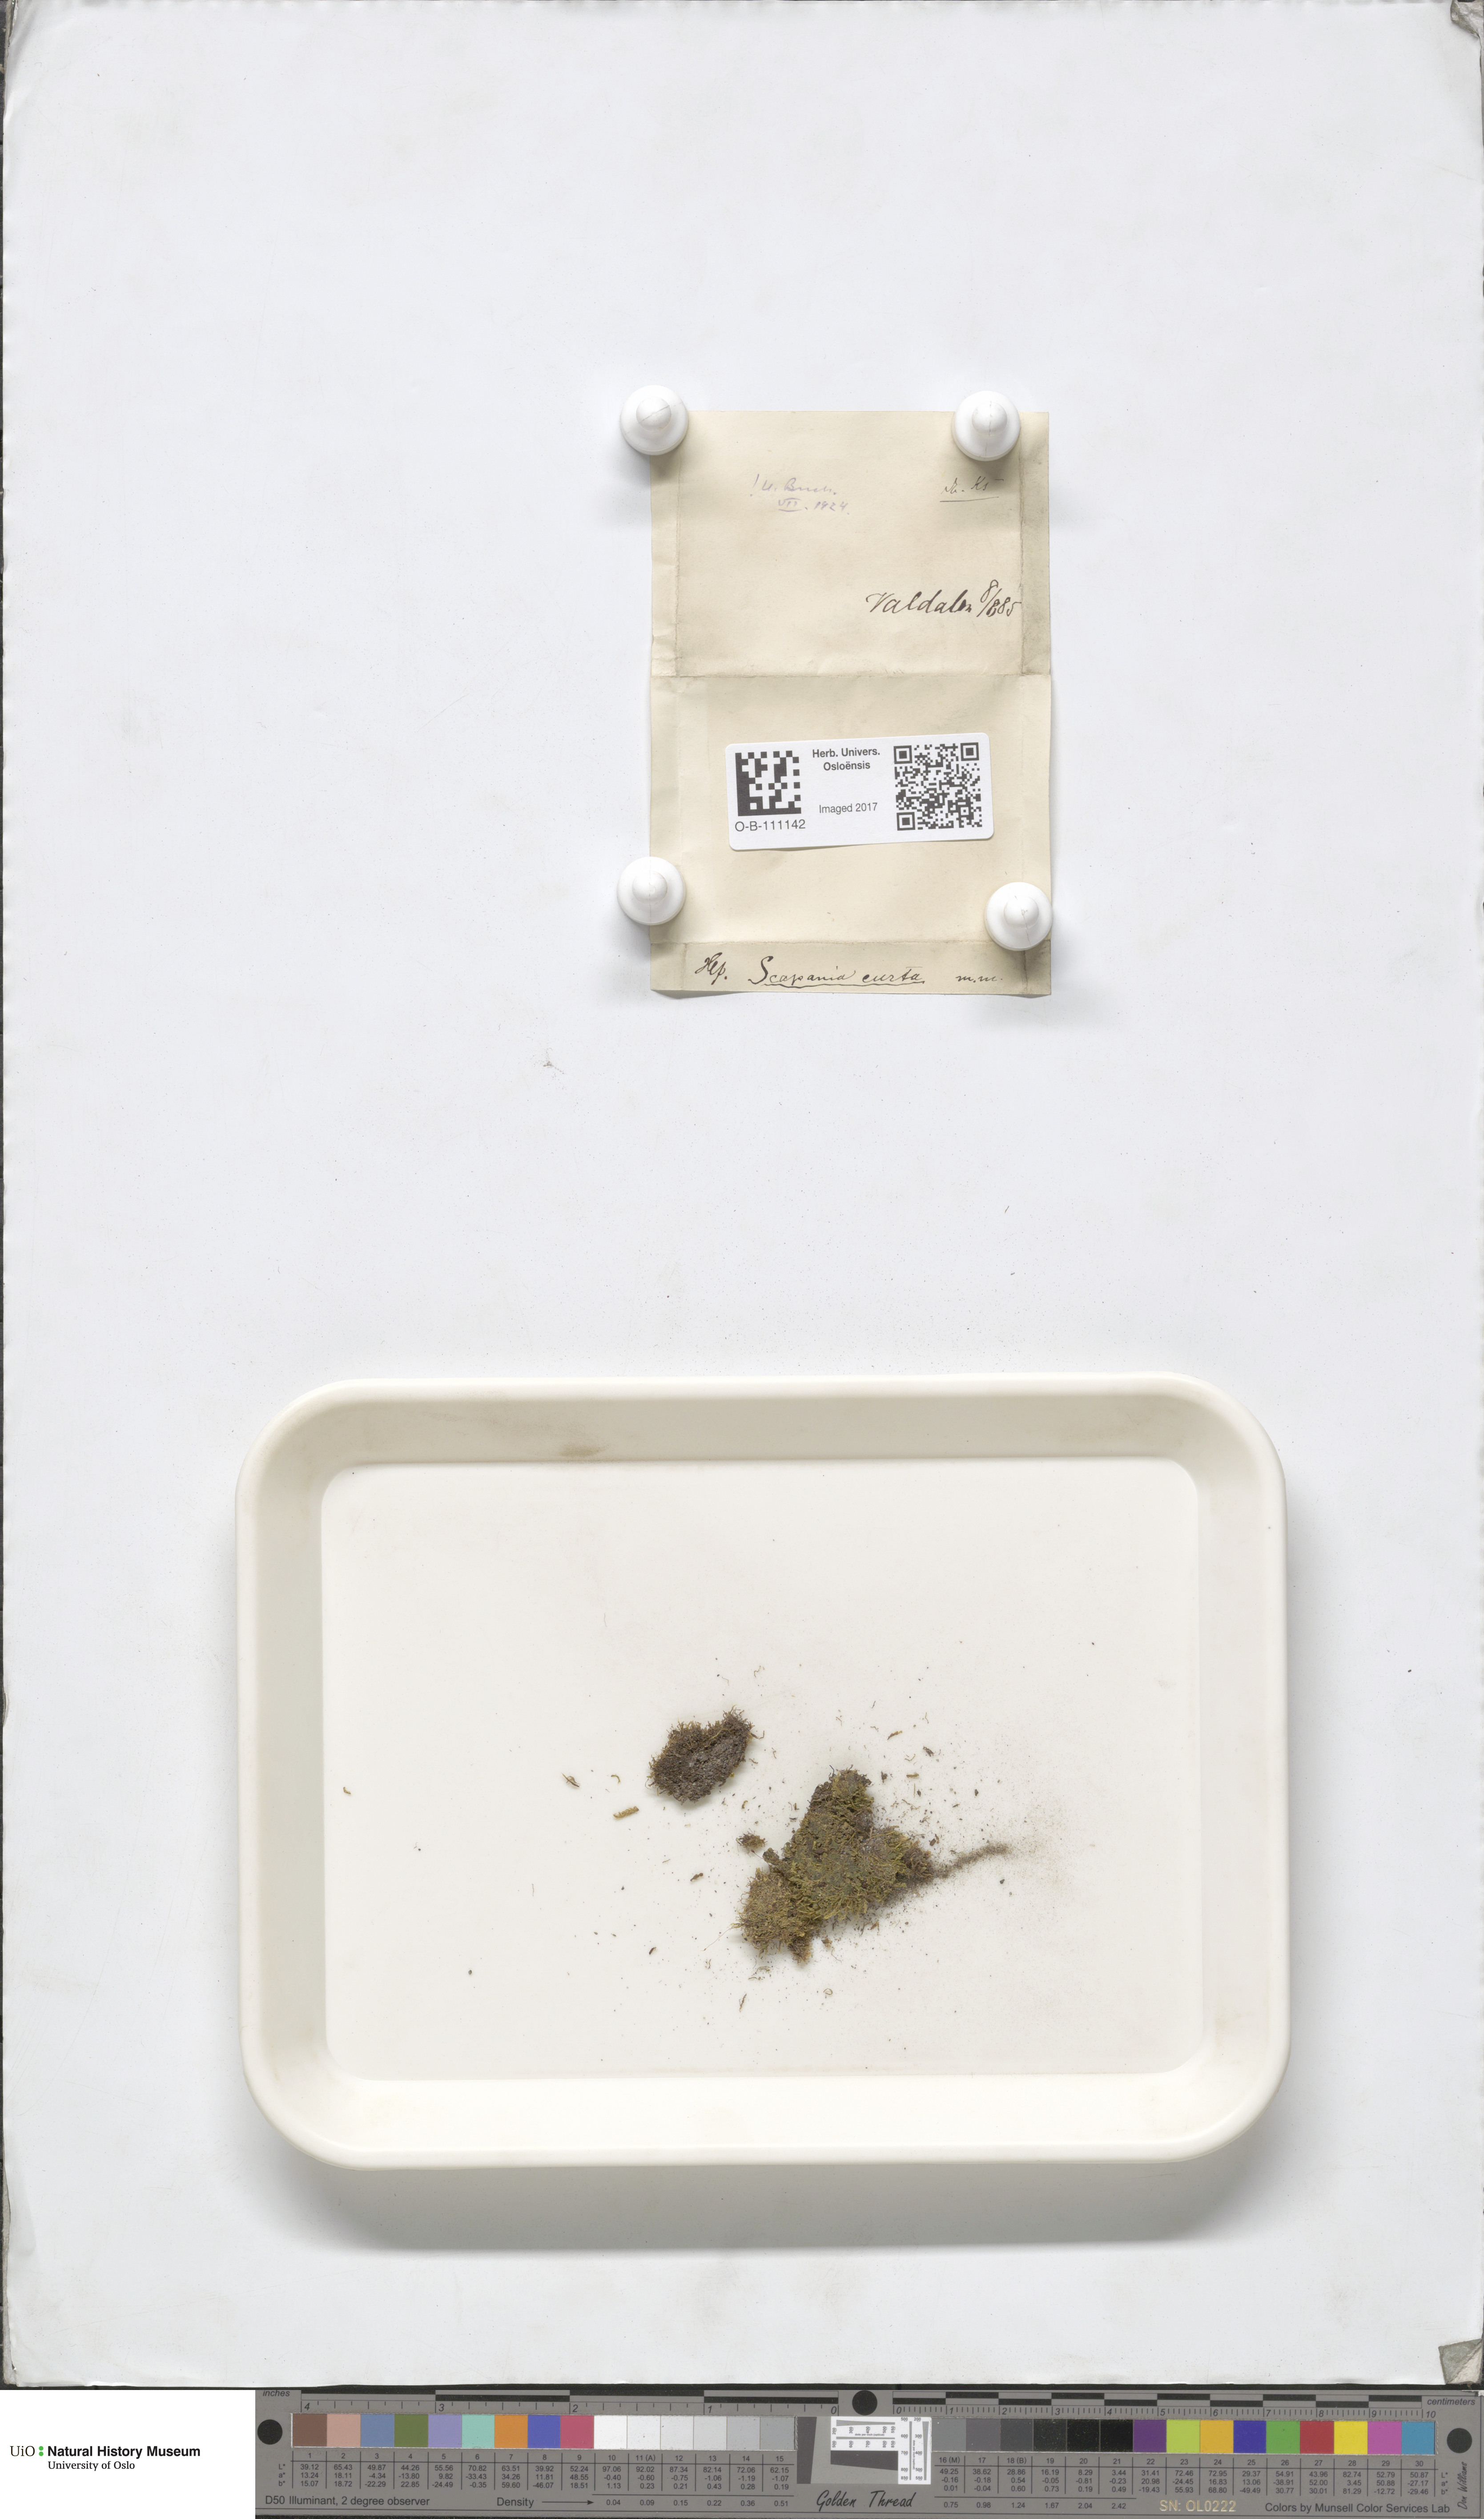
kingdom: Plantae
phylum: Marchantiophyta
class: Jungermanniopsida
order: Jungermanniales
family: Scapaniaceae
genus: Scapania
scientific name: Scapania curta
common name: Least earwort
